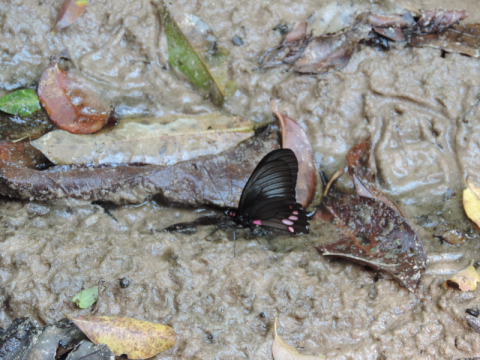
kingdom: Animalia
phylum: Arthropoda
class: Insecta
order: Lepidoptera
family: Papilionidae
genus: Parides
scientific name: Parides neophilus
